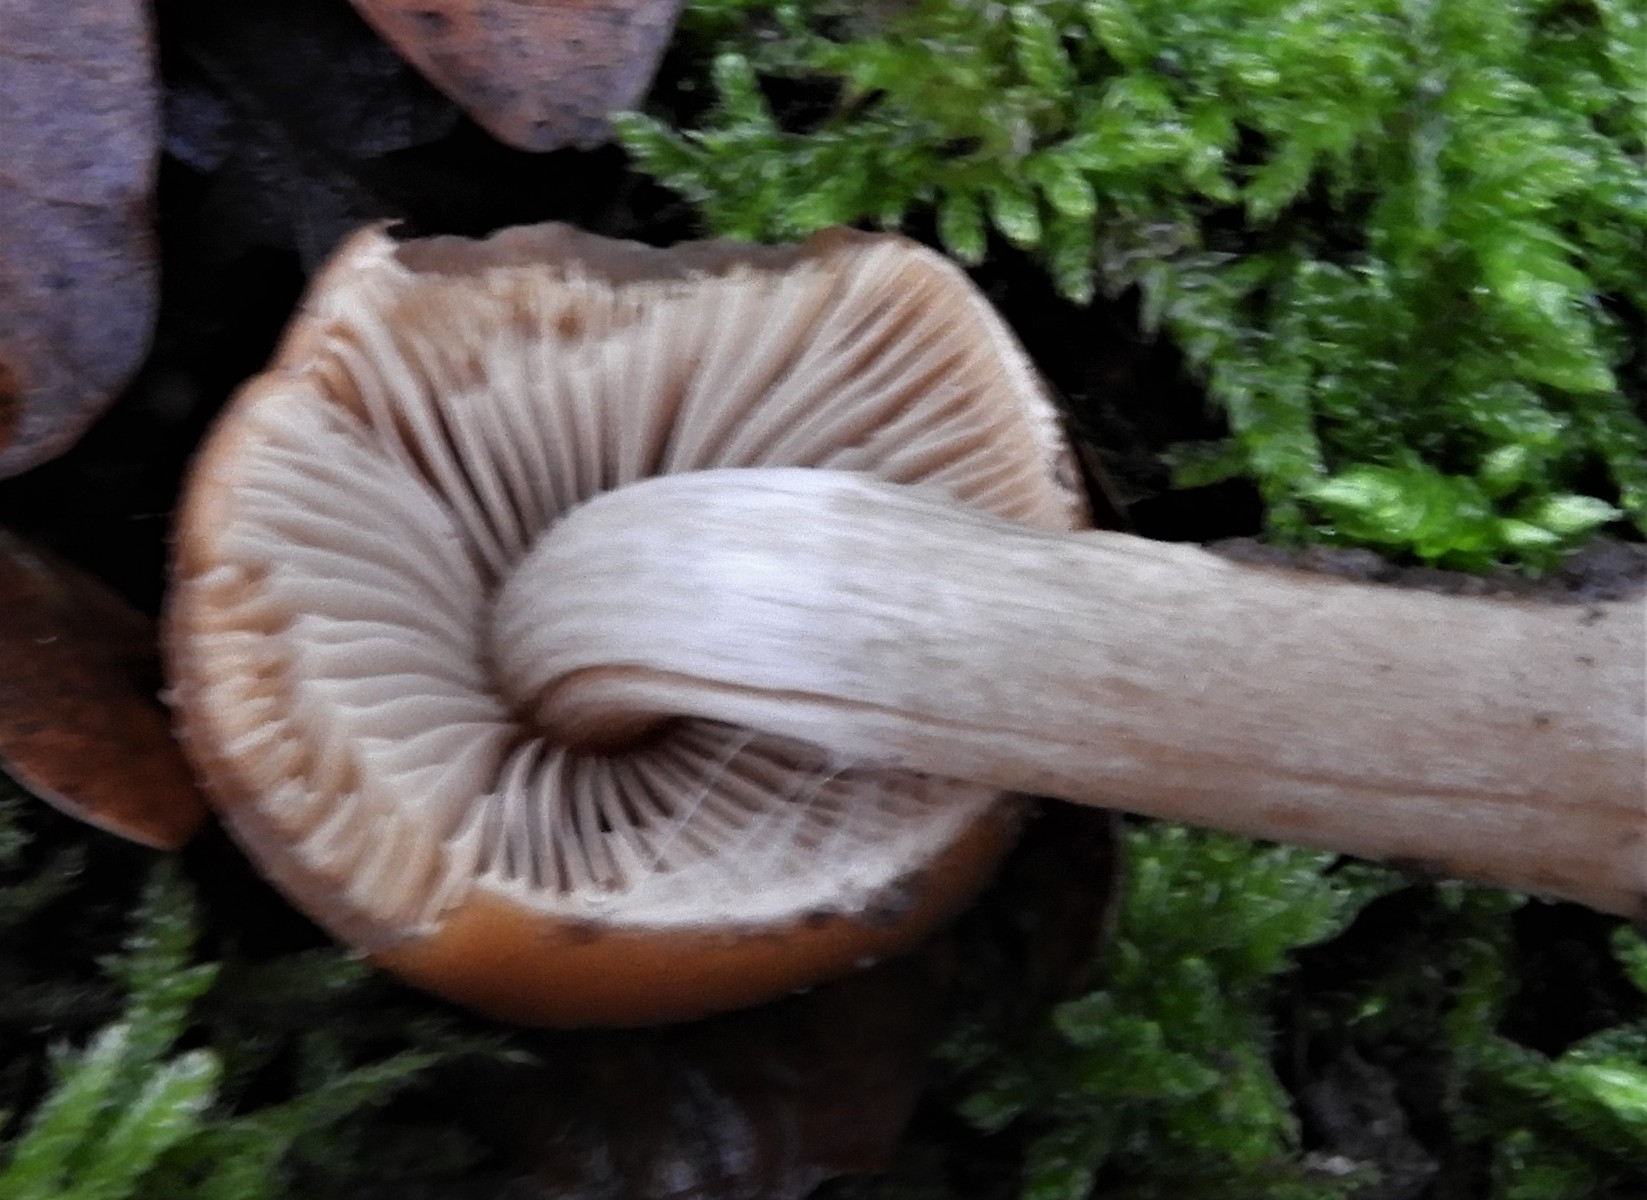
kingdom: Fungi
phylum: Basidiomycota
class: Agaricomycetes
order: Agaricales
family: Psathyrellaceae
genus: Psathyrella
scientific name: Psathyrella piluliformis
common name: lysstokket mørkhat
